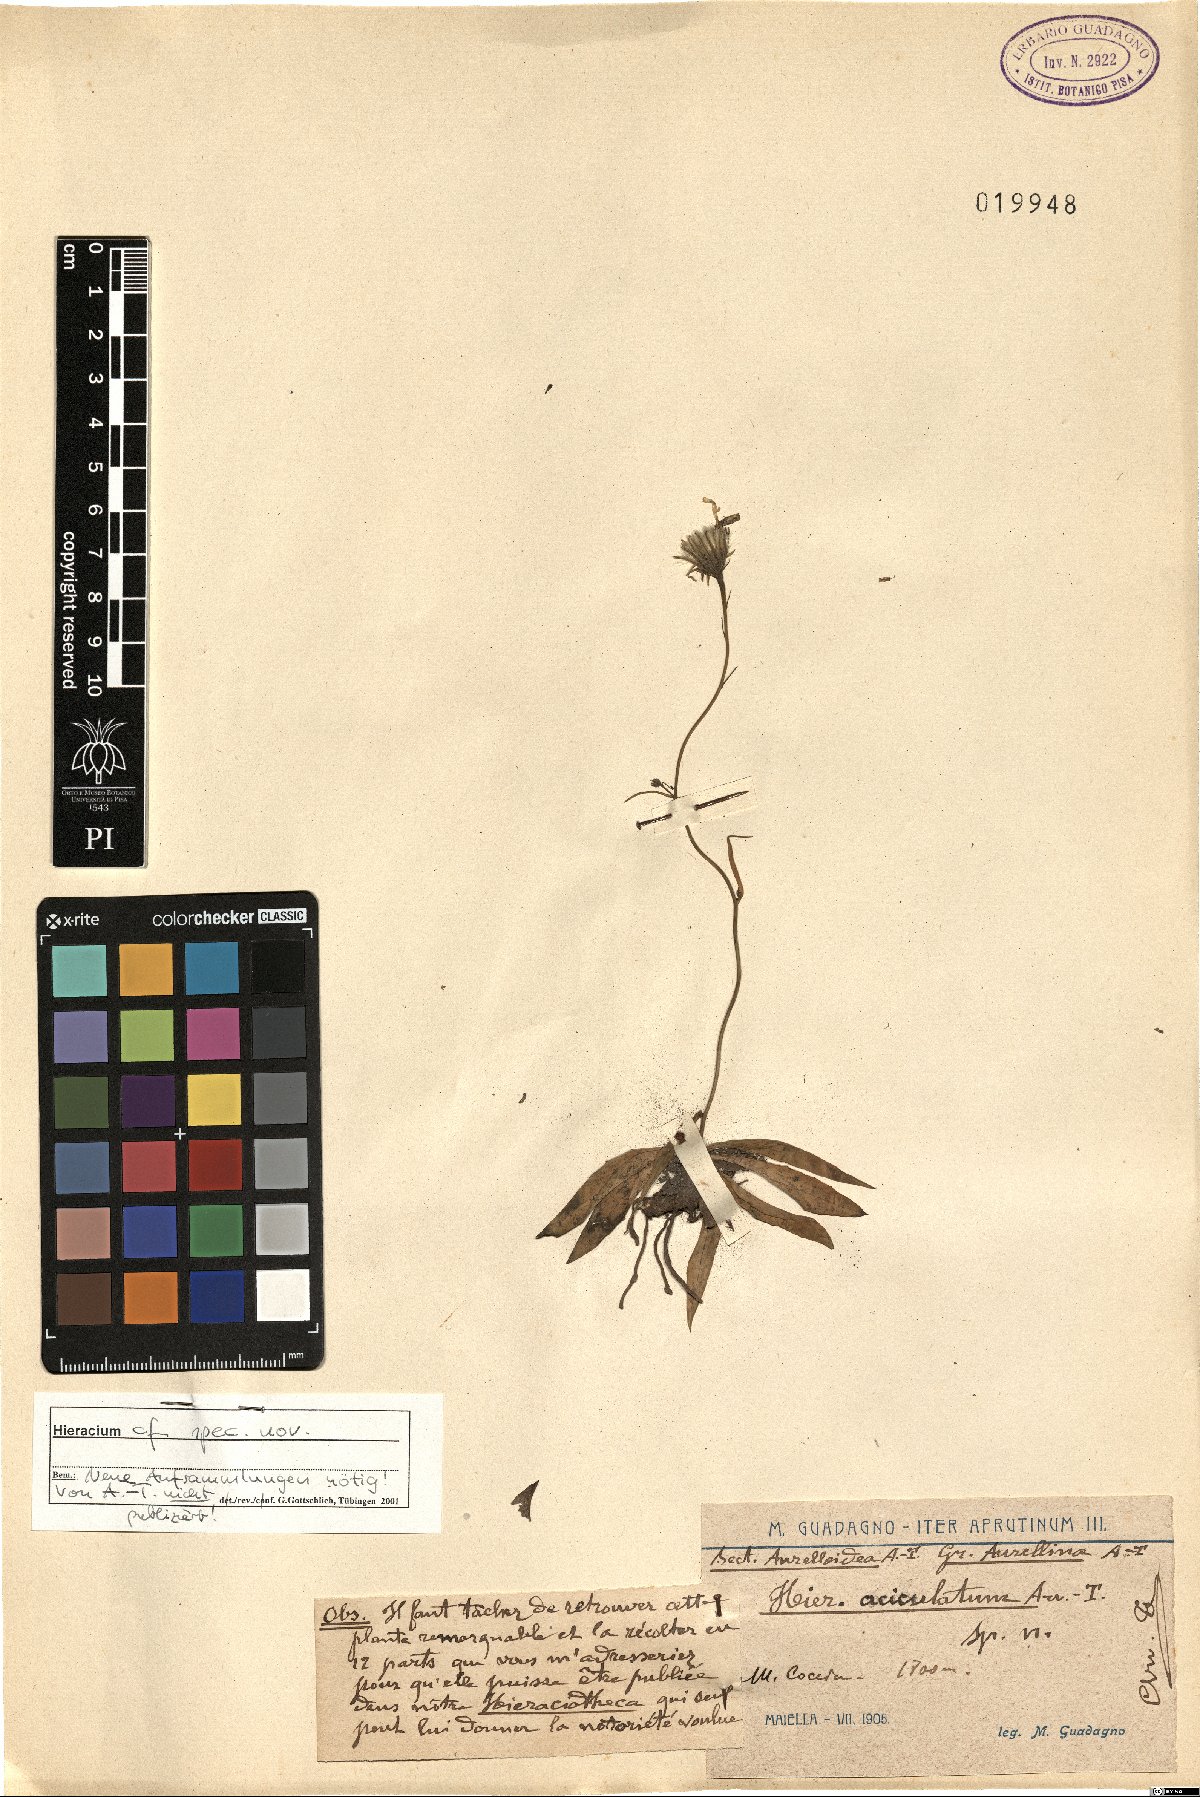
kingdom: Plantae
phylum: Tracheophyta
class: Magnoliopsida
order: Asterales
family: Asteraceae
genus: Hieracium
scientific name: Hieracium
